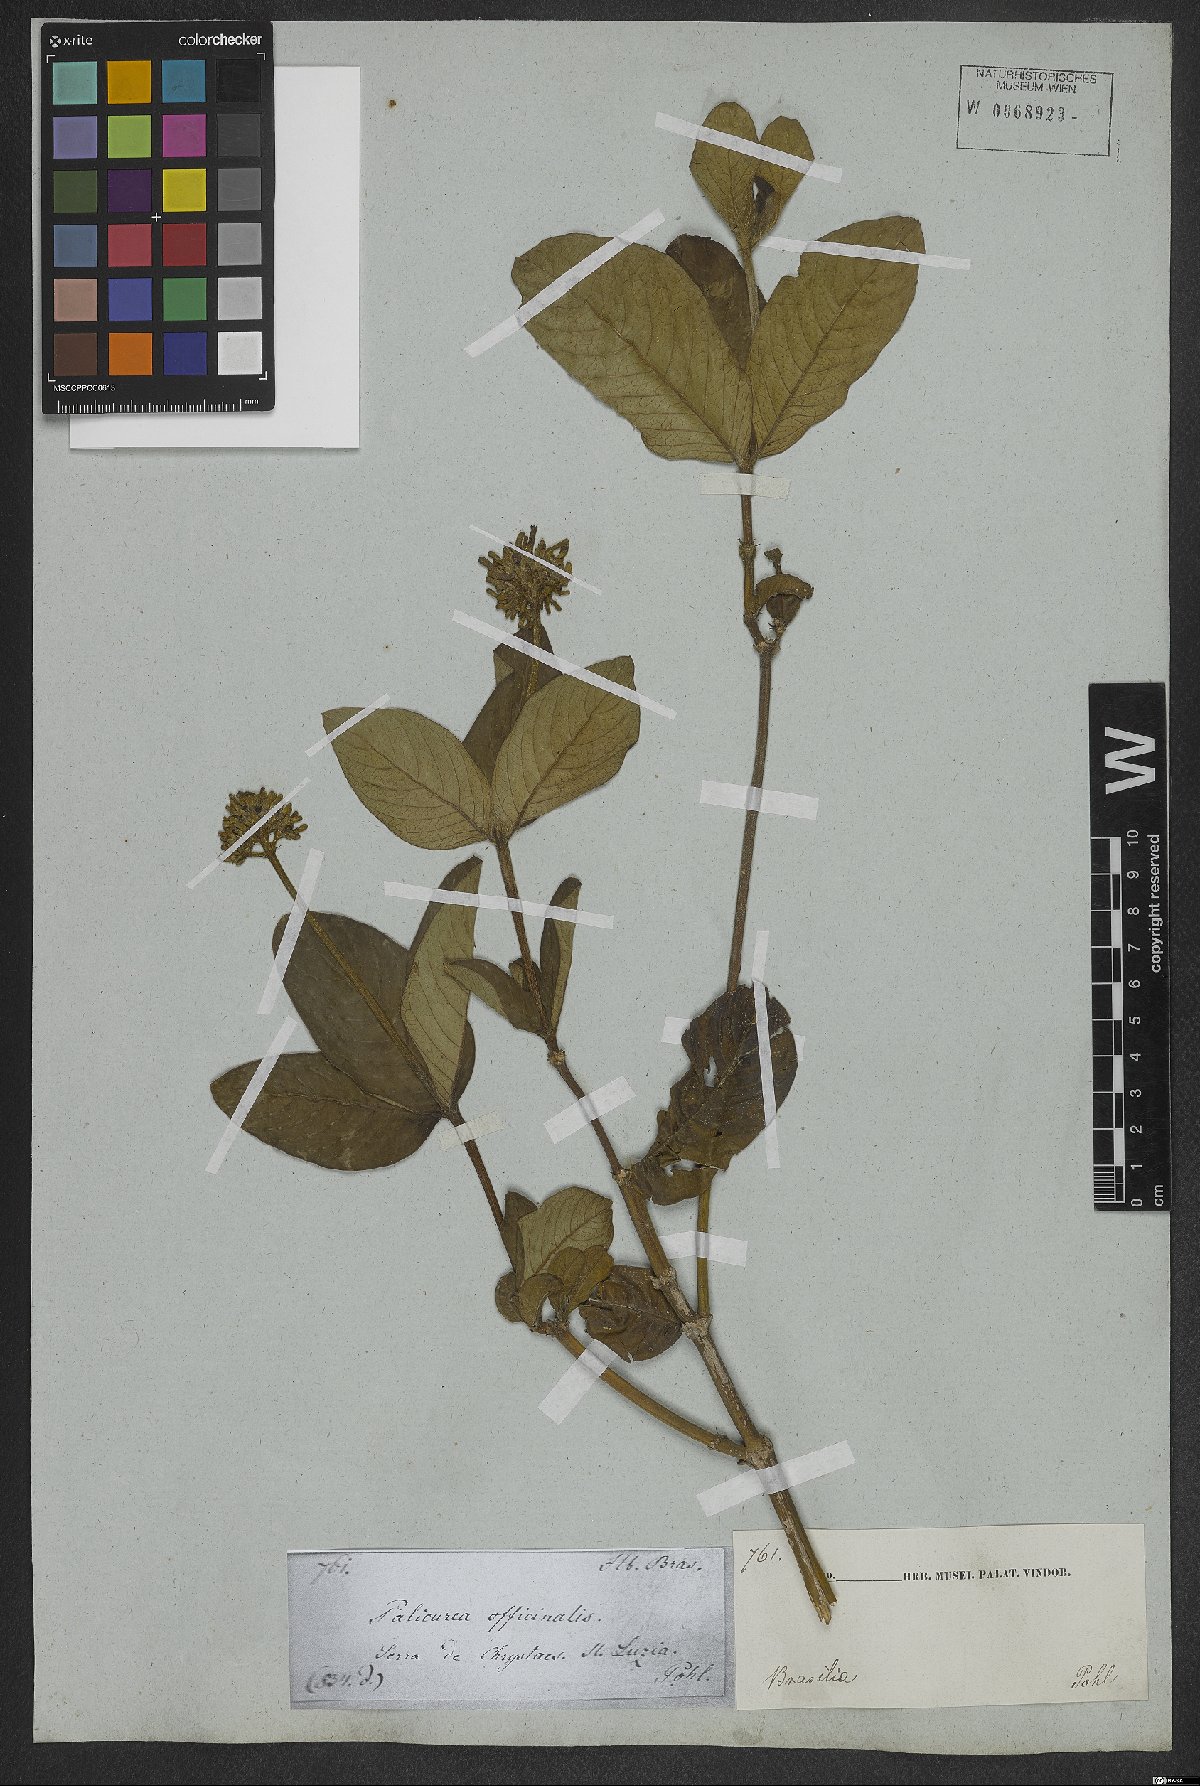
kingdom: Plantae
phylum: Tracheophyta
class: Magnoliopsida
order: Gentianales
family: Rubiaceae
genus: Palicourea
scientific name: Palicourea officinalis
